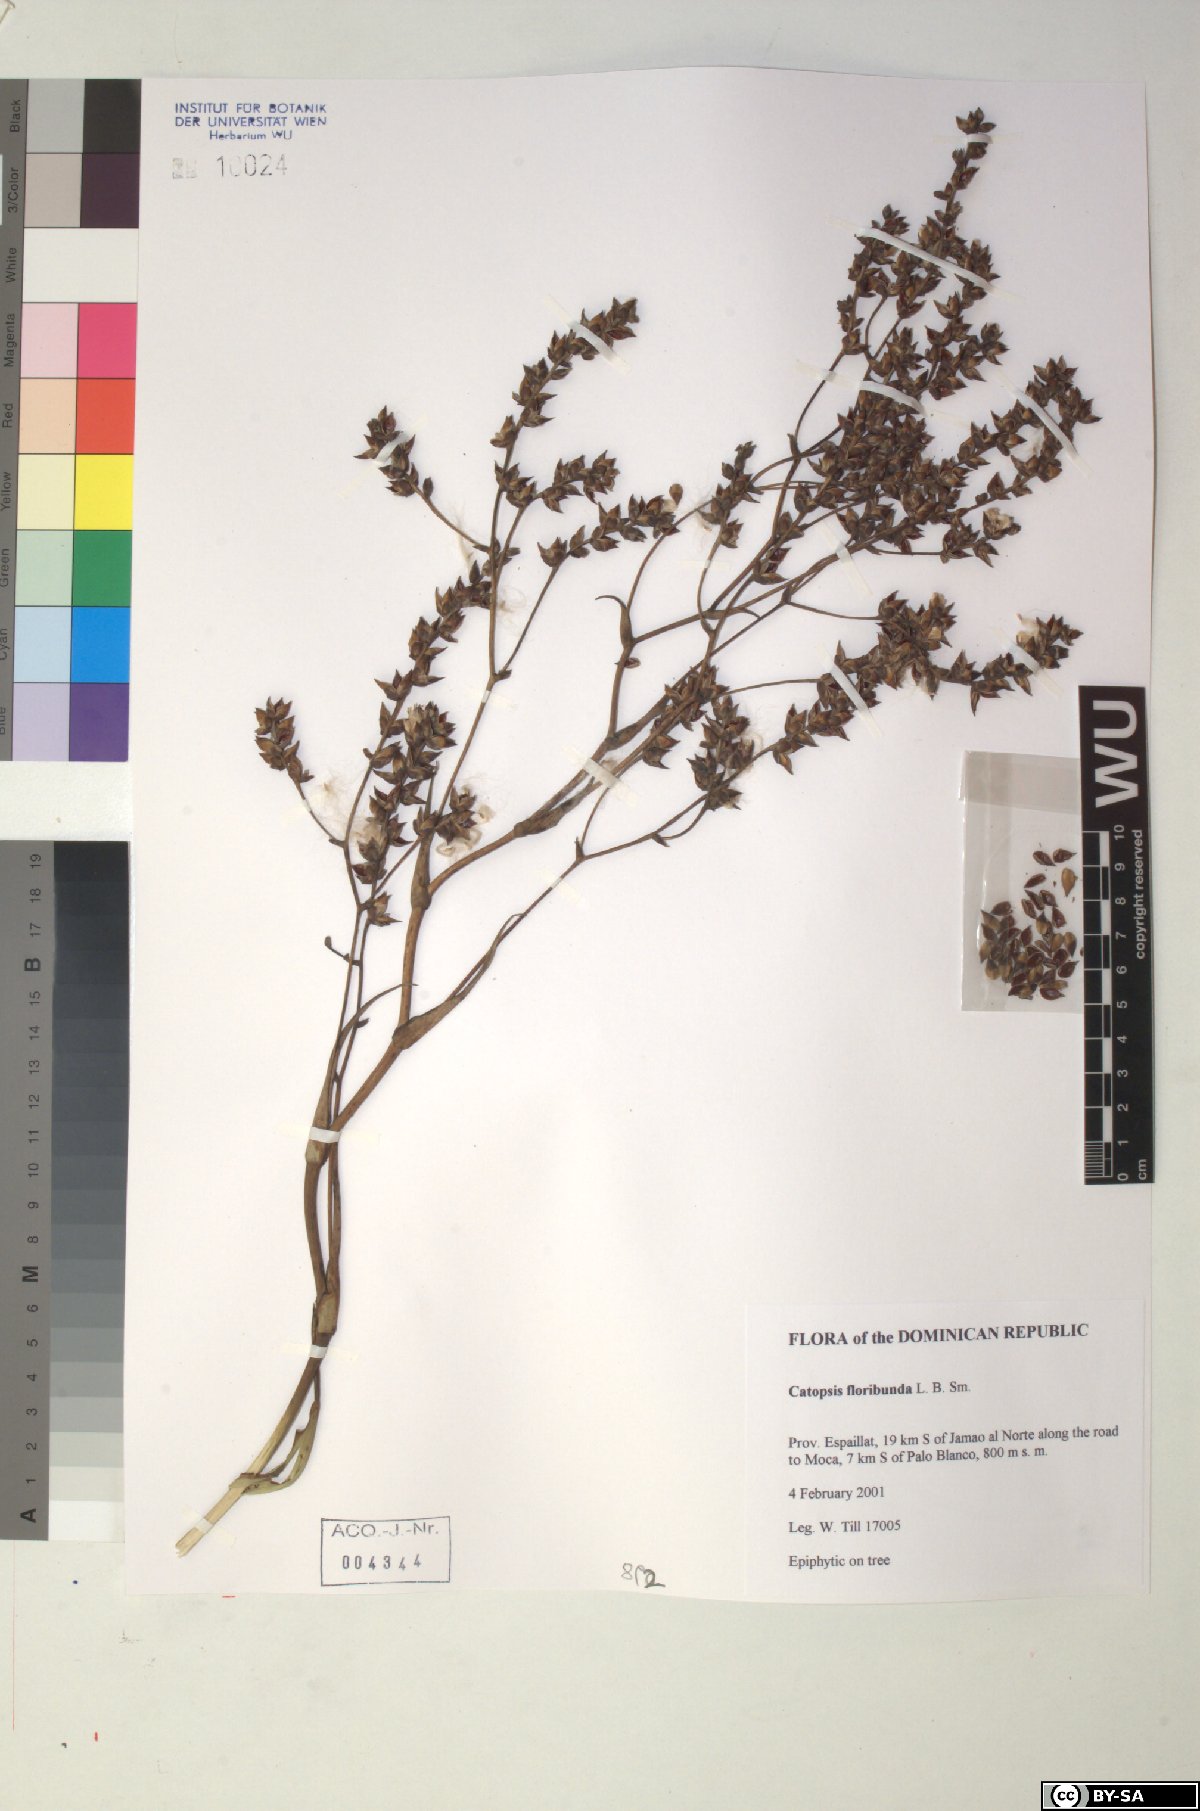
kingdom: Plantae
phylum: Tracheophyta
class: Liliopsida
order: Poales
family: Bromeliaceae
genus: Catopsis
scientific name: Catopsis floribunda
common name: Florida strap airplant
